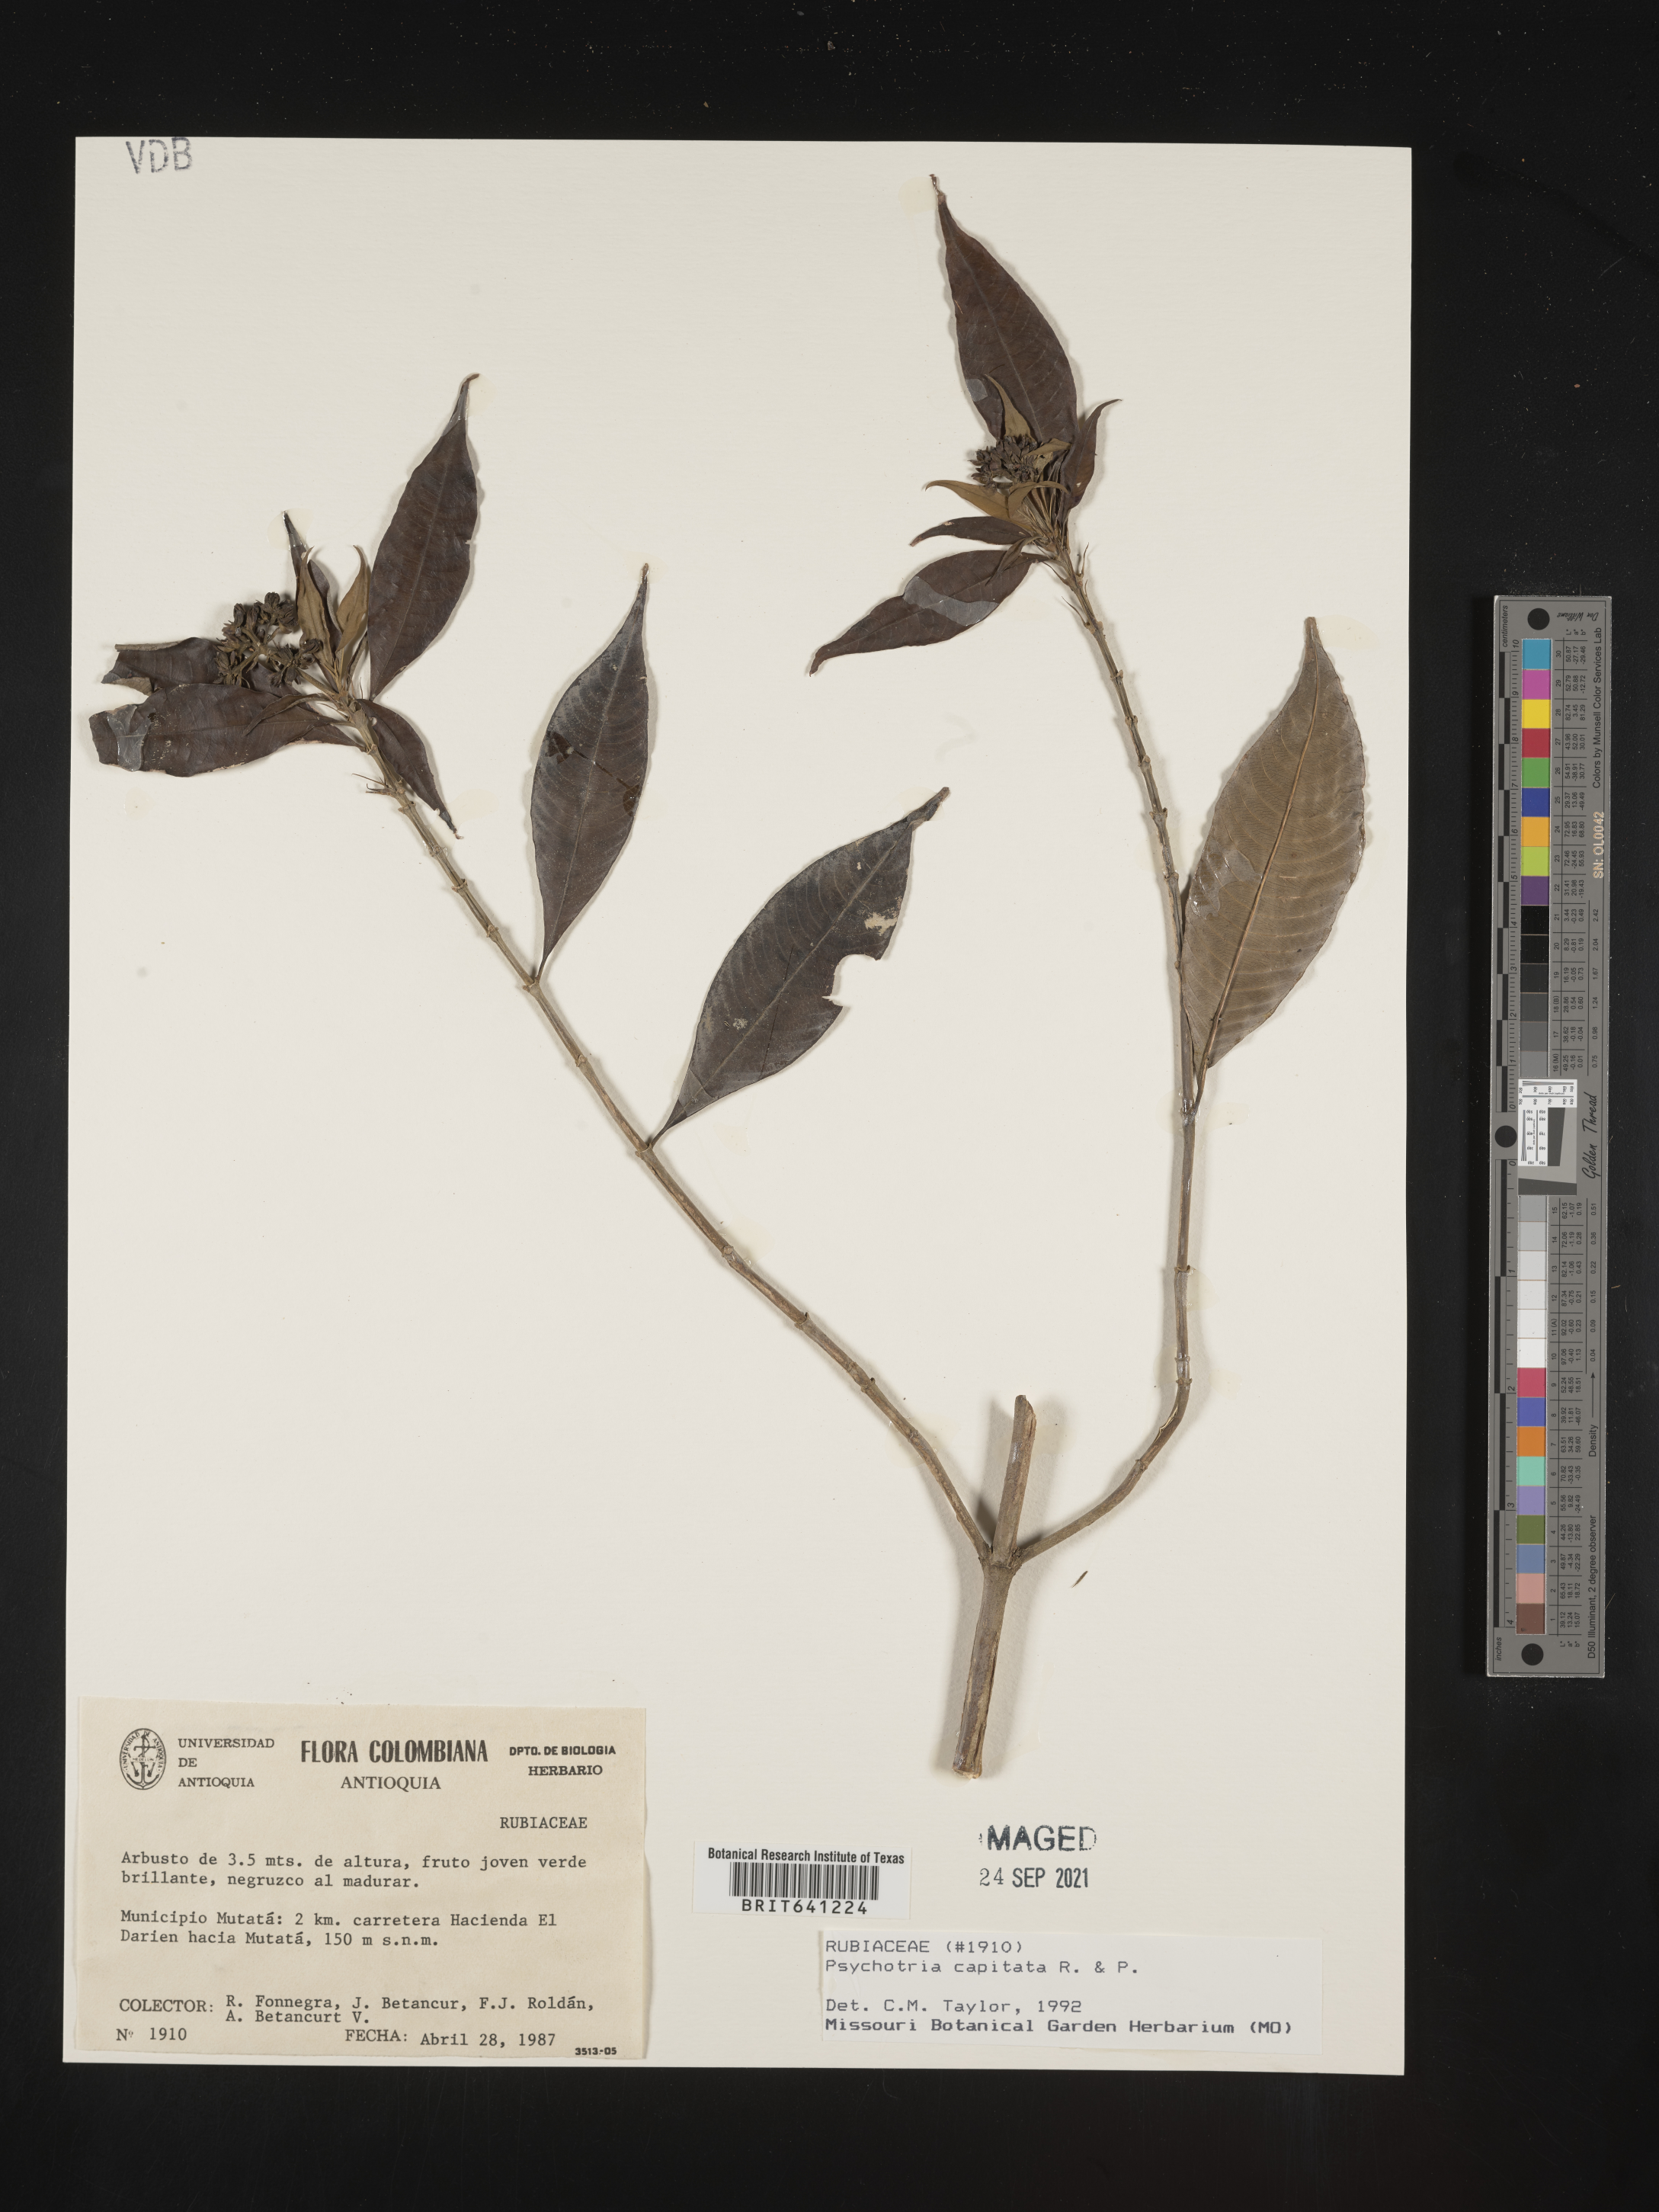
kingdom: Plantae
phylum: Tracheophyta
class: Magnoliopsida
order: Gentianales
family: Rubiaceae
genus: Psychotria
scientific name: Psychotria
